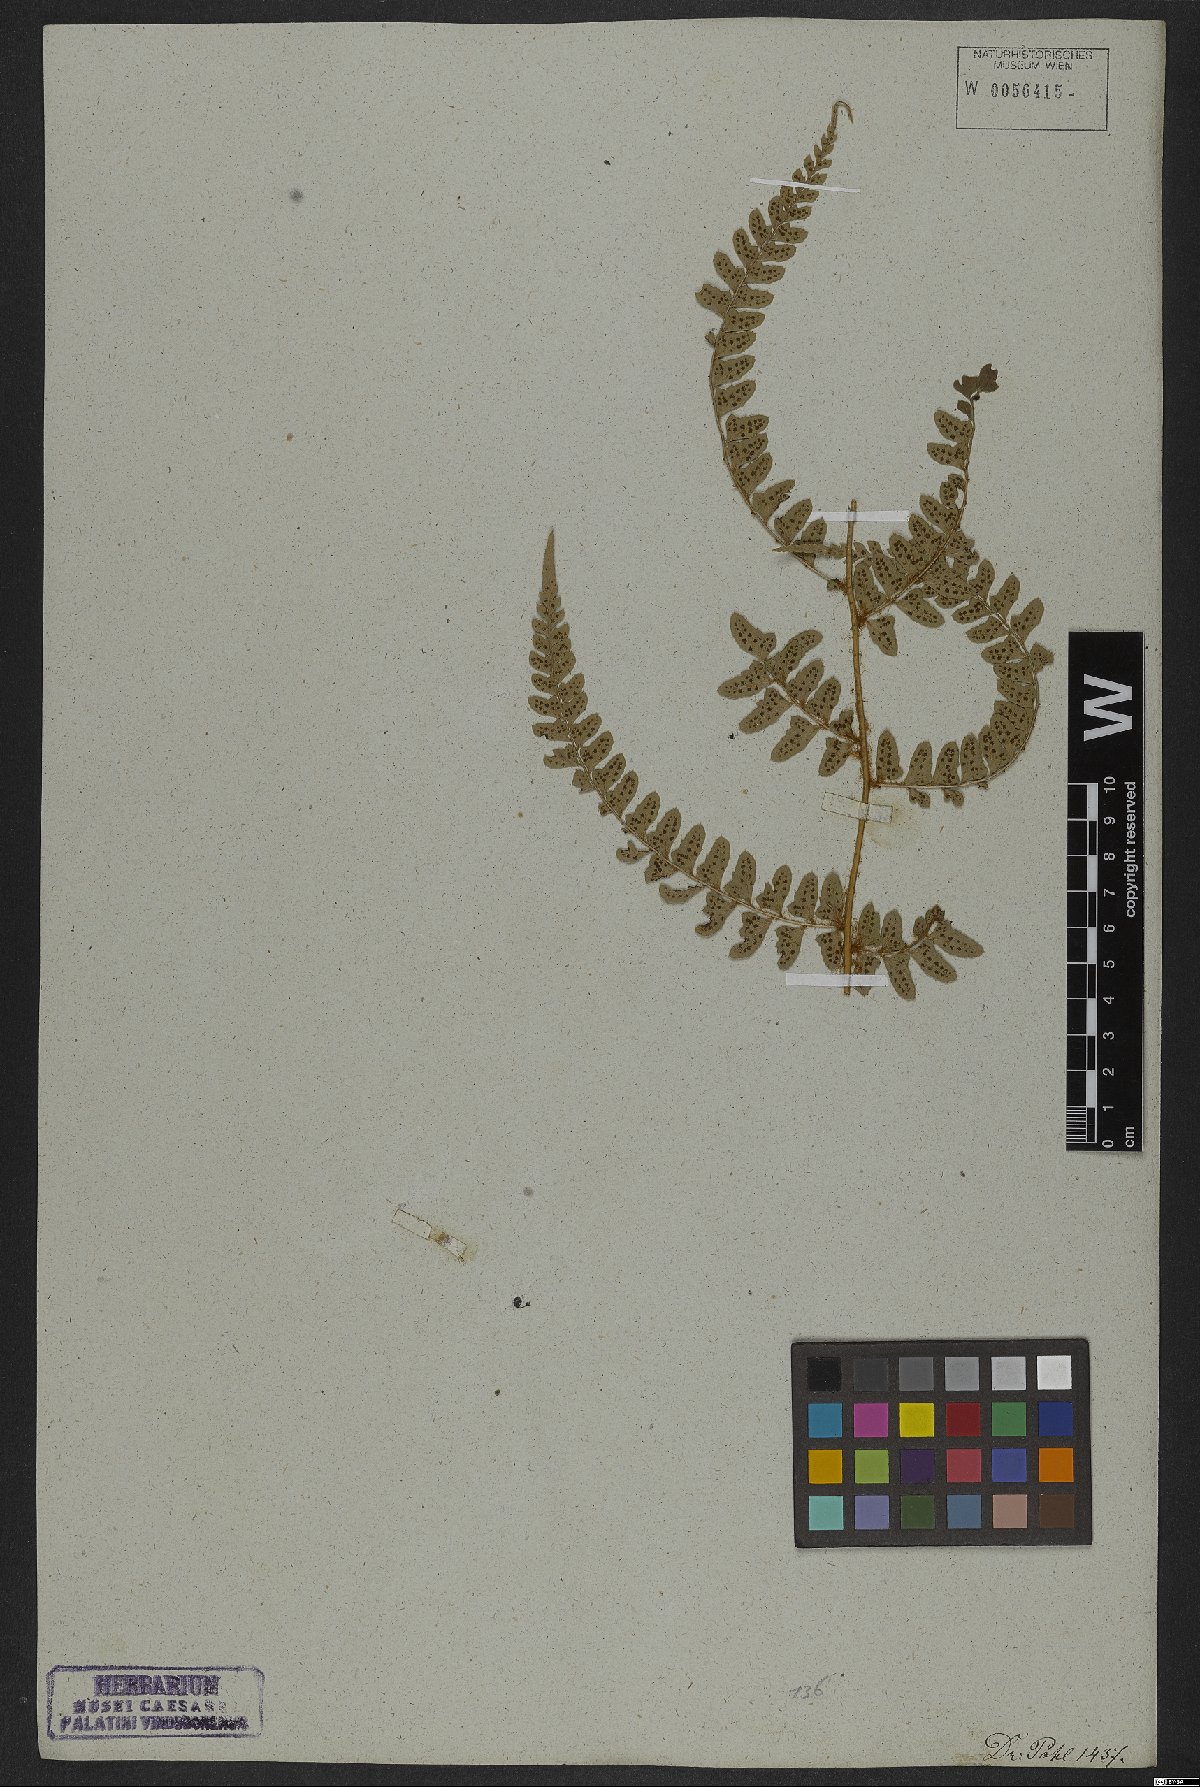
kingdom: Plantae
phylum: Tracheophyta
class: Polypodiopsida
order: Polypodiales
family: Dryopteridaceae
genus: Polystichum
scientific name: Polystichum aculeatum
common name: Hard shield-fern
